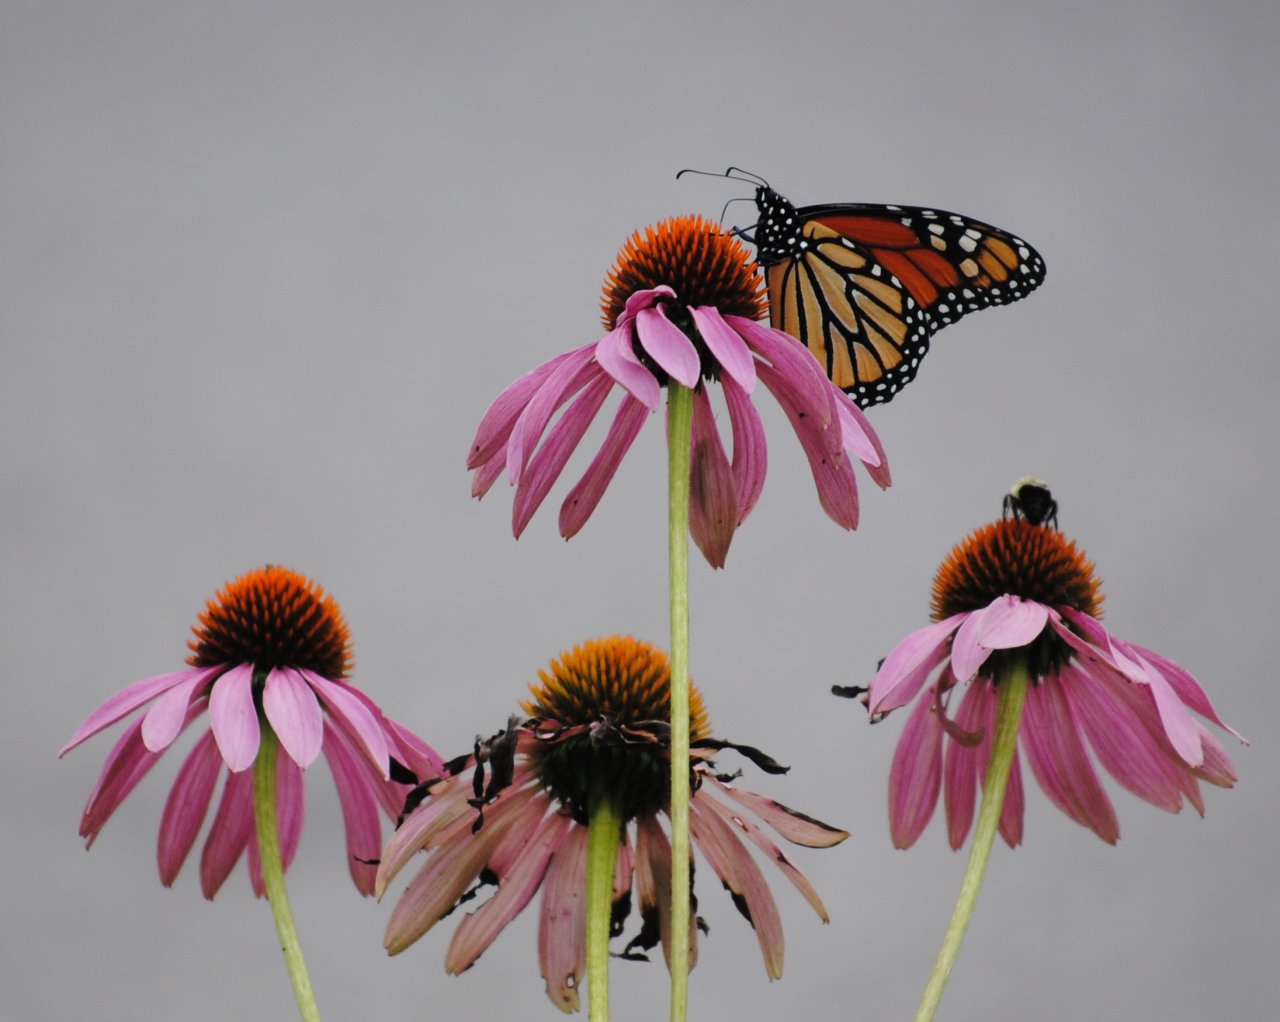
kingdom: Animalia
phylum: Arthropoda
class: Insecta
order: Lepidoptera
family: Nymphalidae
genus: Danaus
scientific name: Danaus plexippus
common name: Monarch
